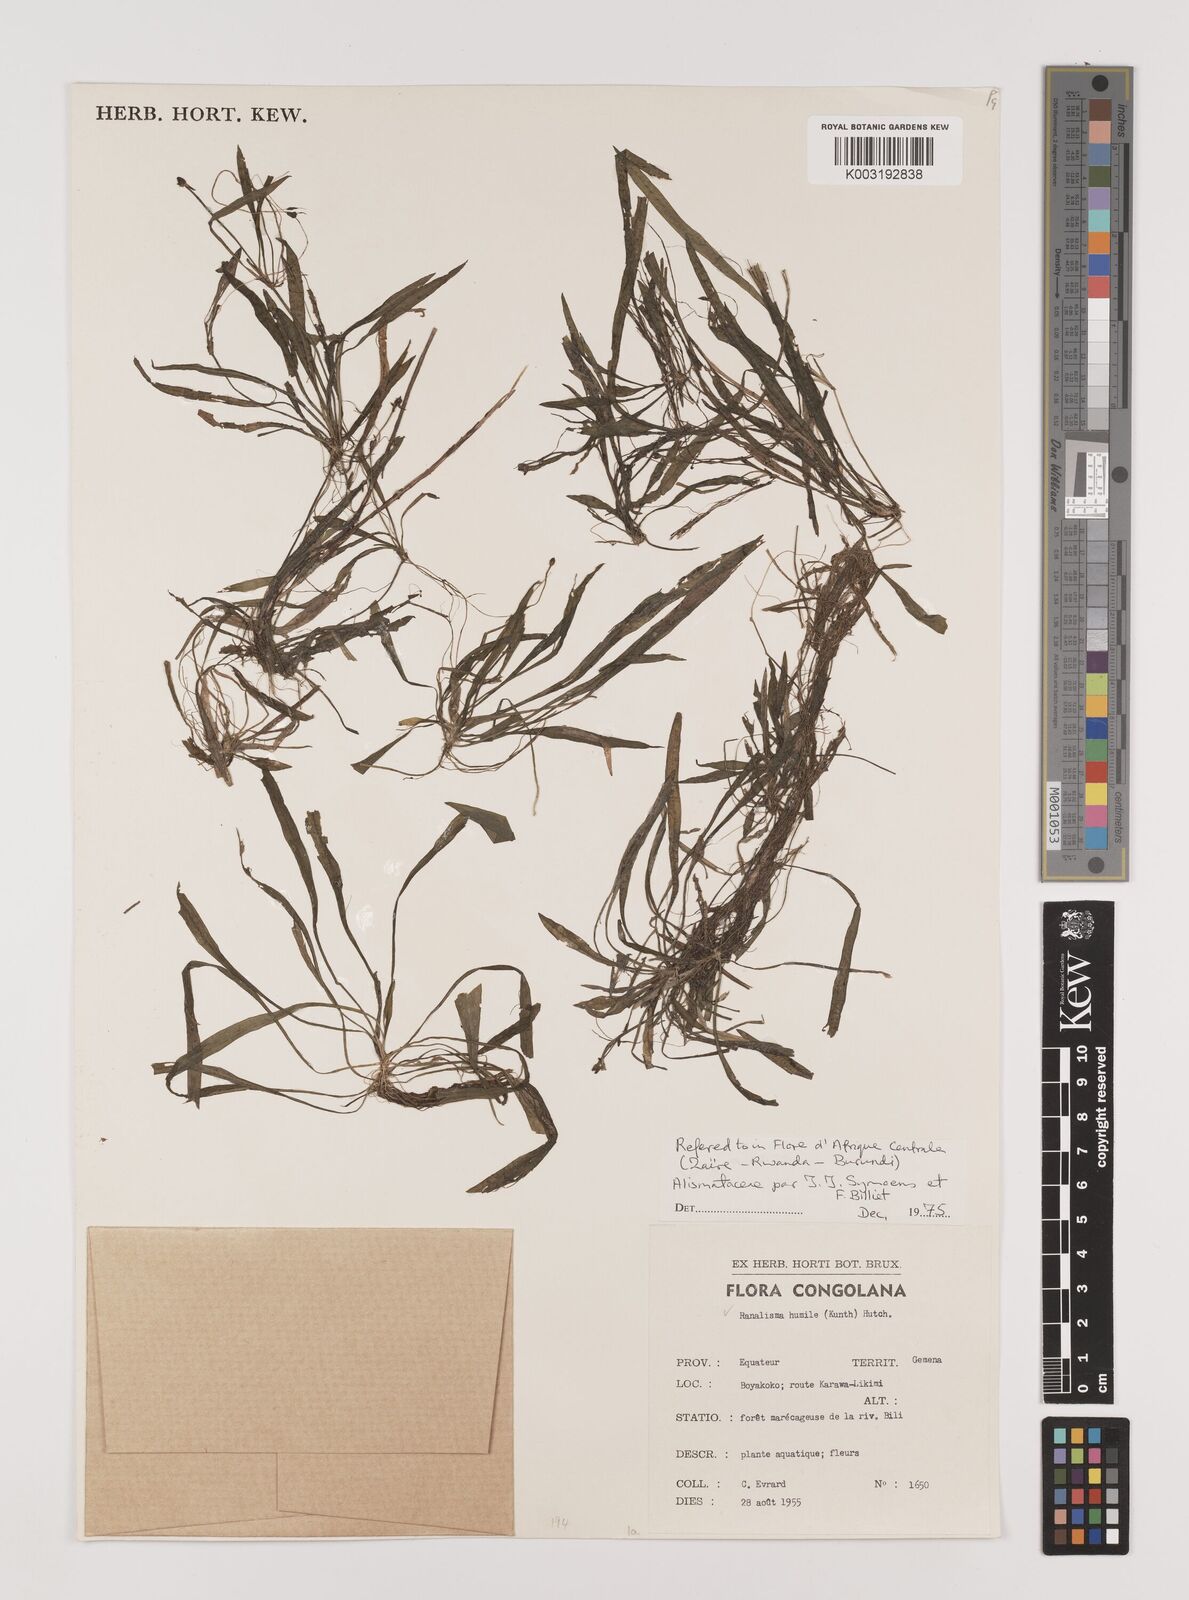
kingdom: Plantae
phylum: Tracheophyta
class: Liliopsida
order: Alismatales
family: Alismataceae
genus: Ranalisma
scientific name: Ranalisma humile
